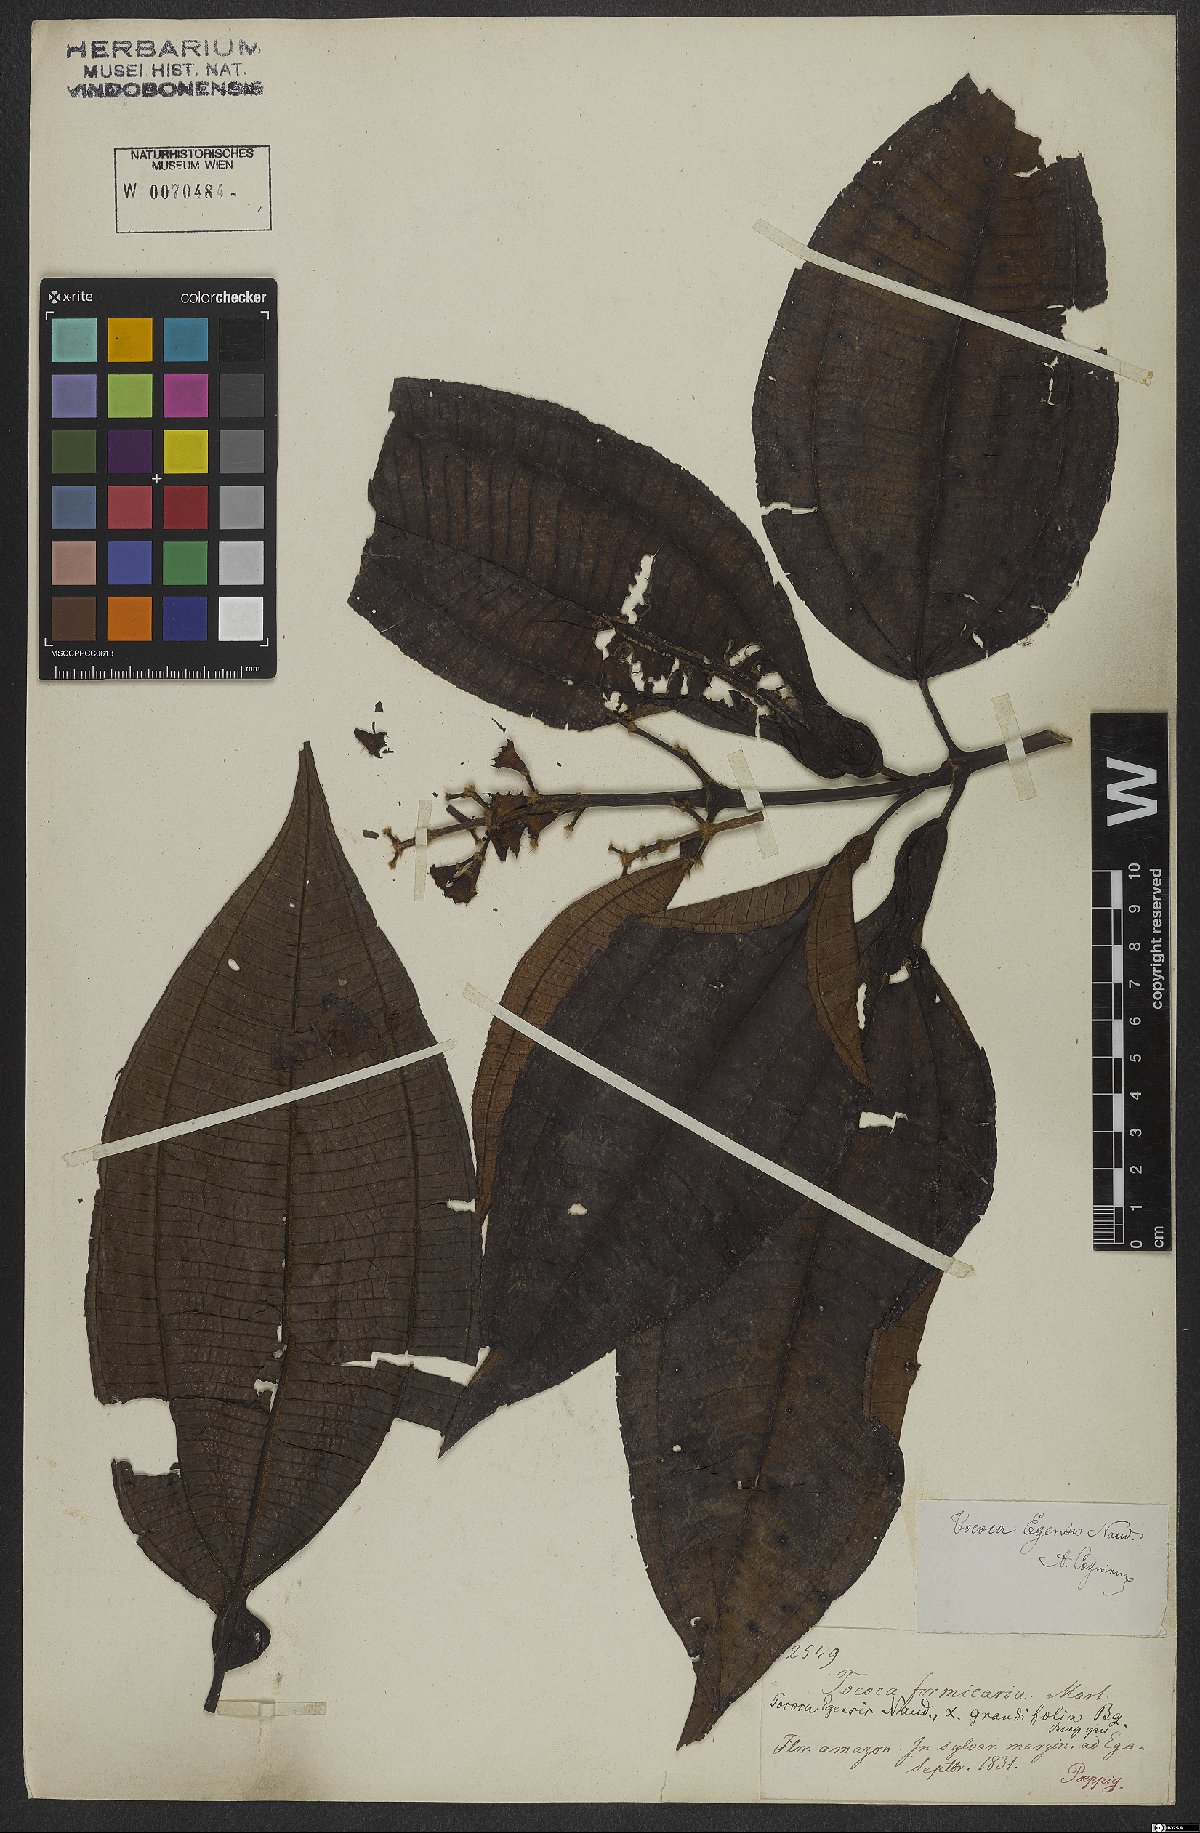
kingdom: Plantae
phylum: Tracheophyta
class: Magnoliopsida
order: Myrtales
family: Melastomataceae
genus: Miconia
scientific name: Miconia tococoronata
